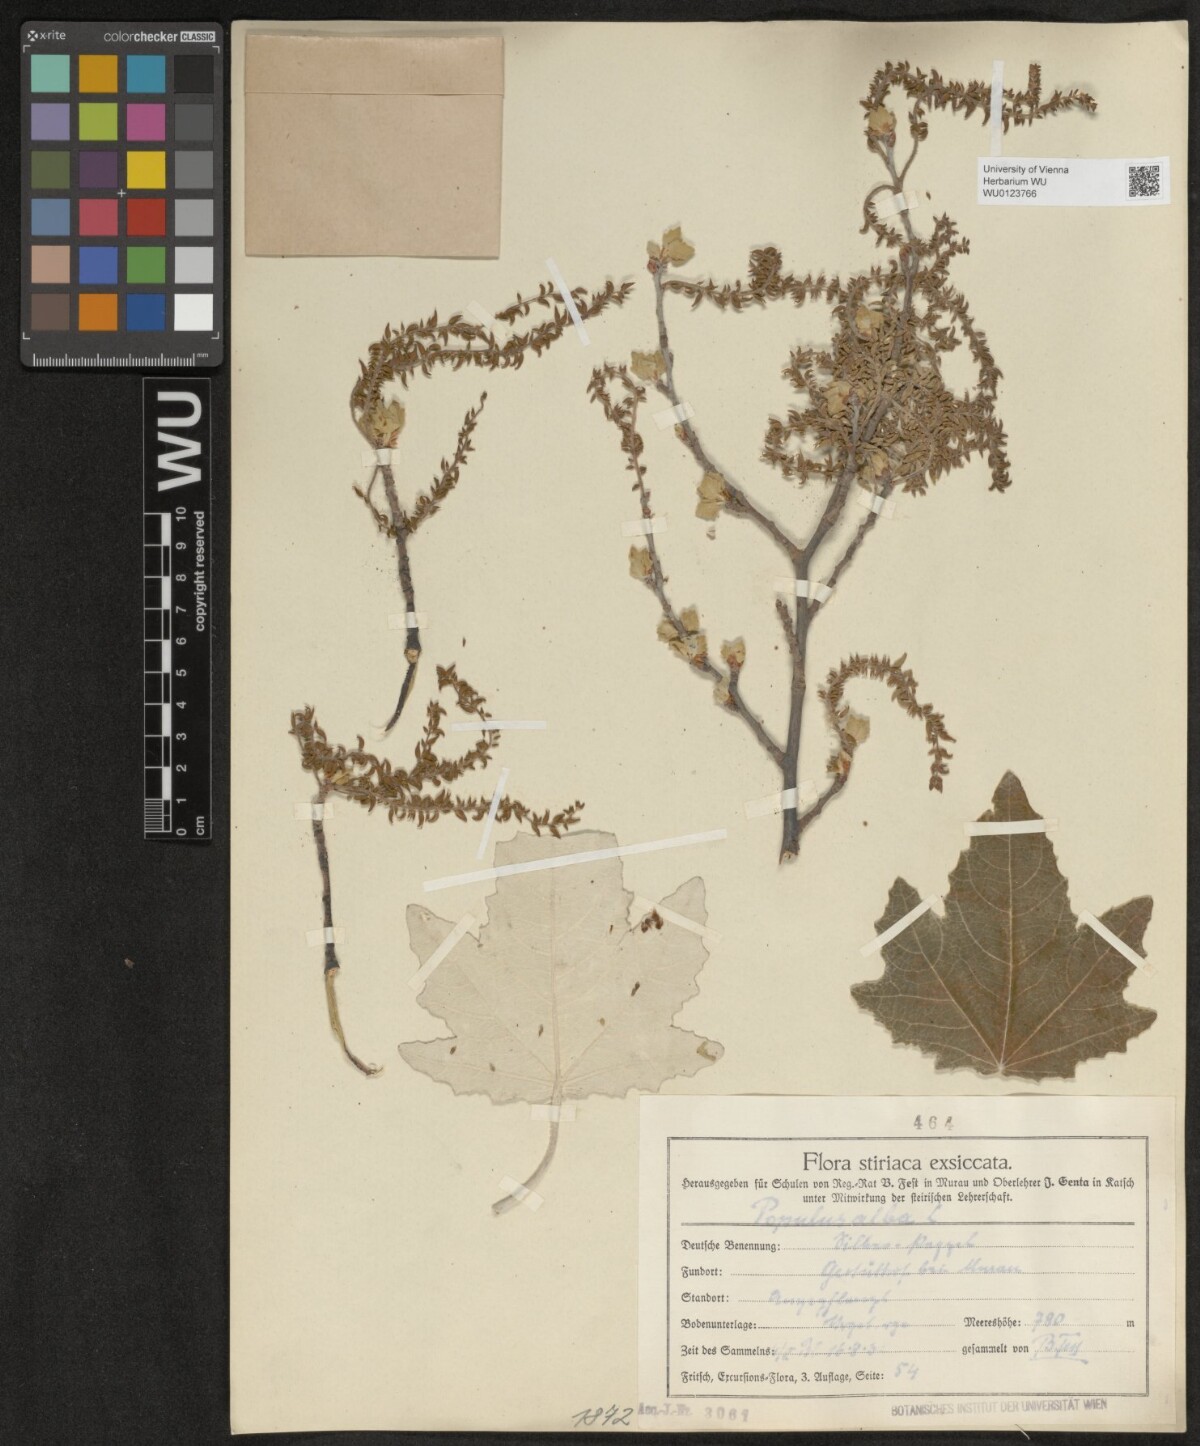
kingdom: Plantae
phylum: Tracheophyta
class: Magnoliopsida
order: Malpighiales
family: Salicaceae
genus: Populus
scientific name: Populus alba
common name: White poplar
